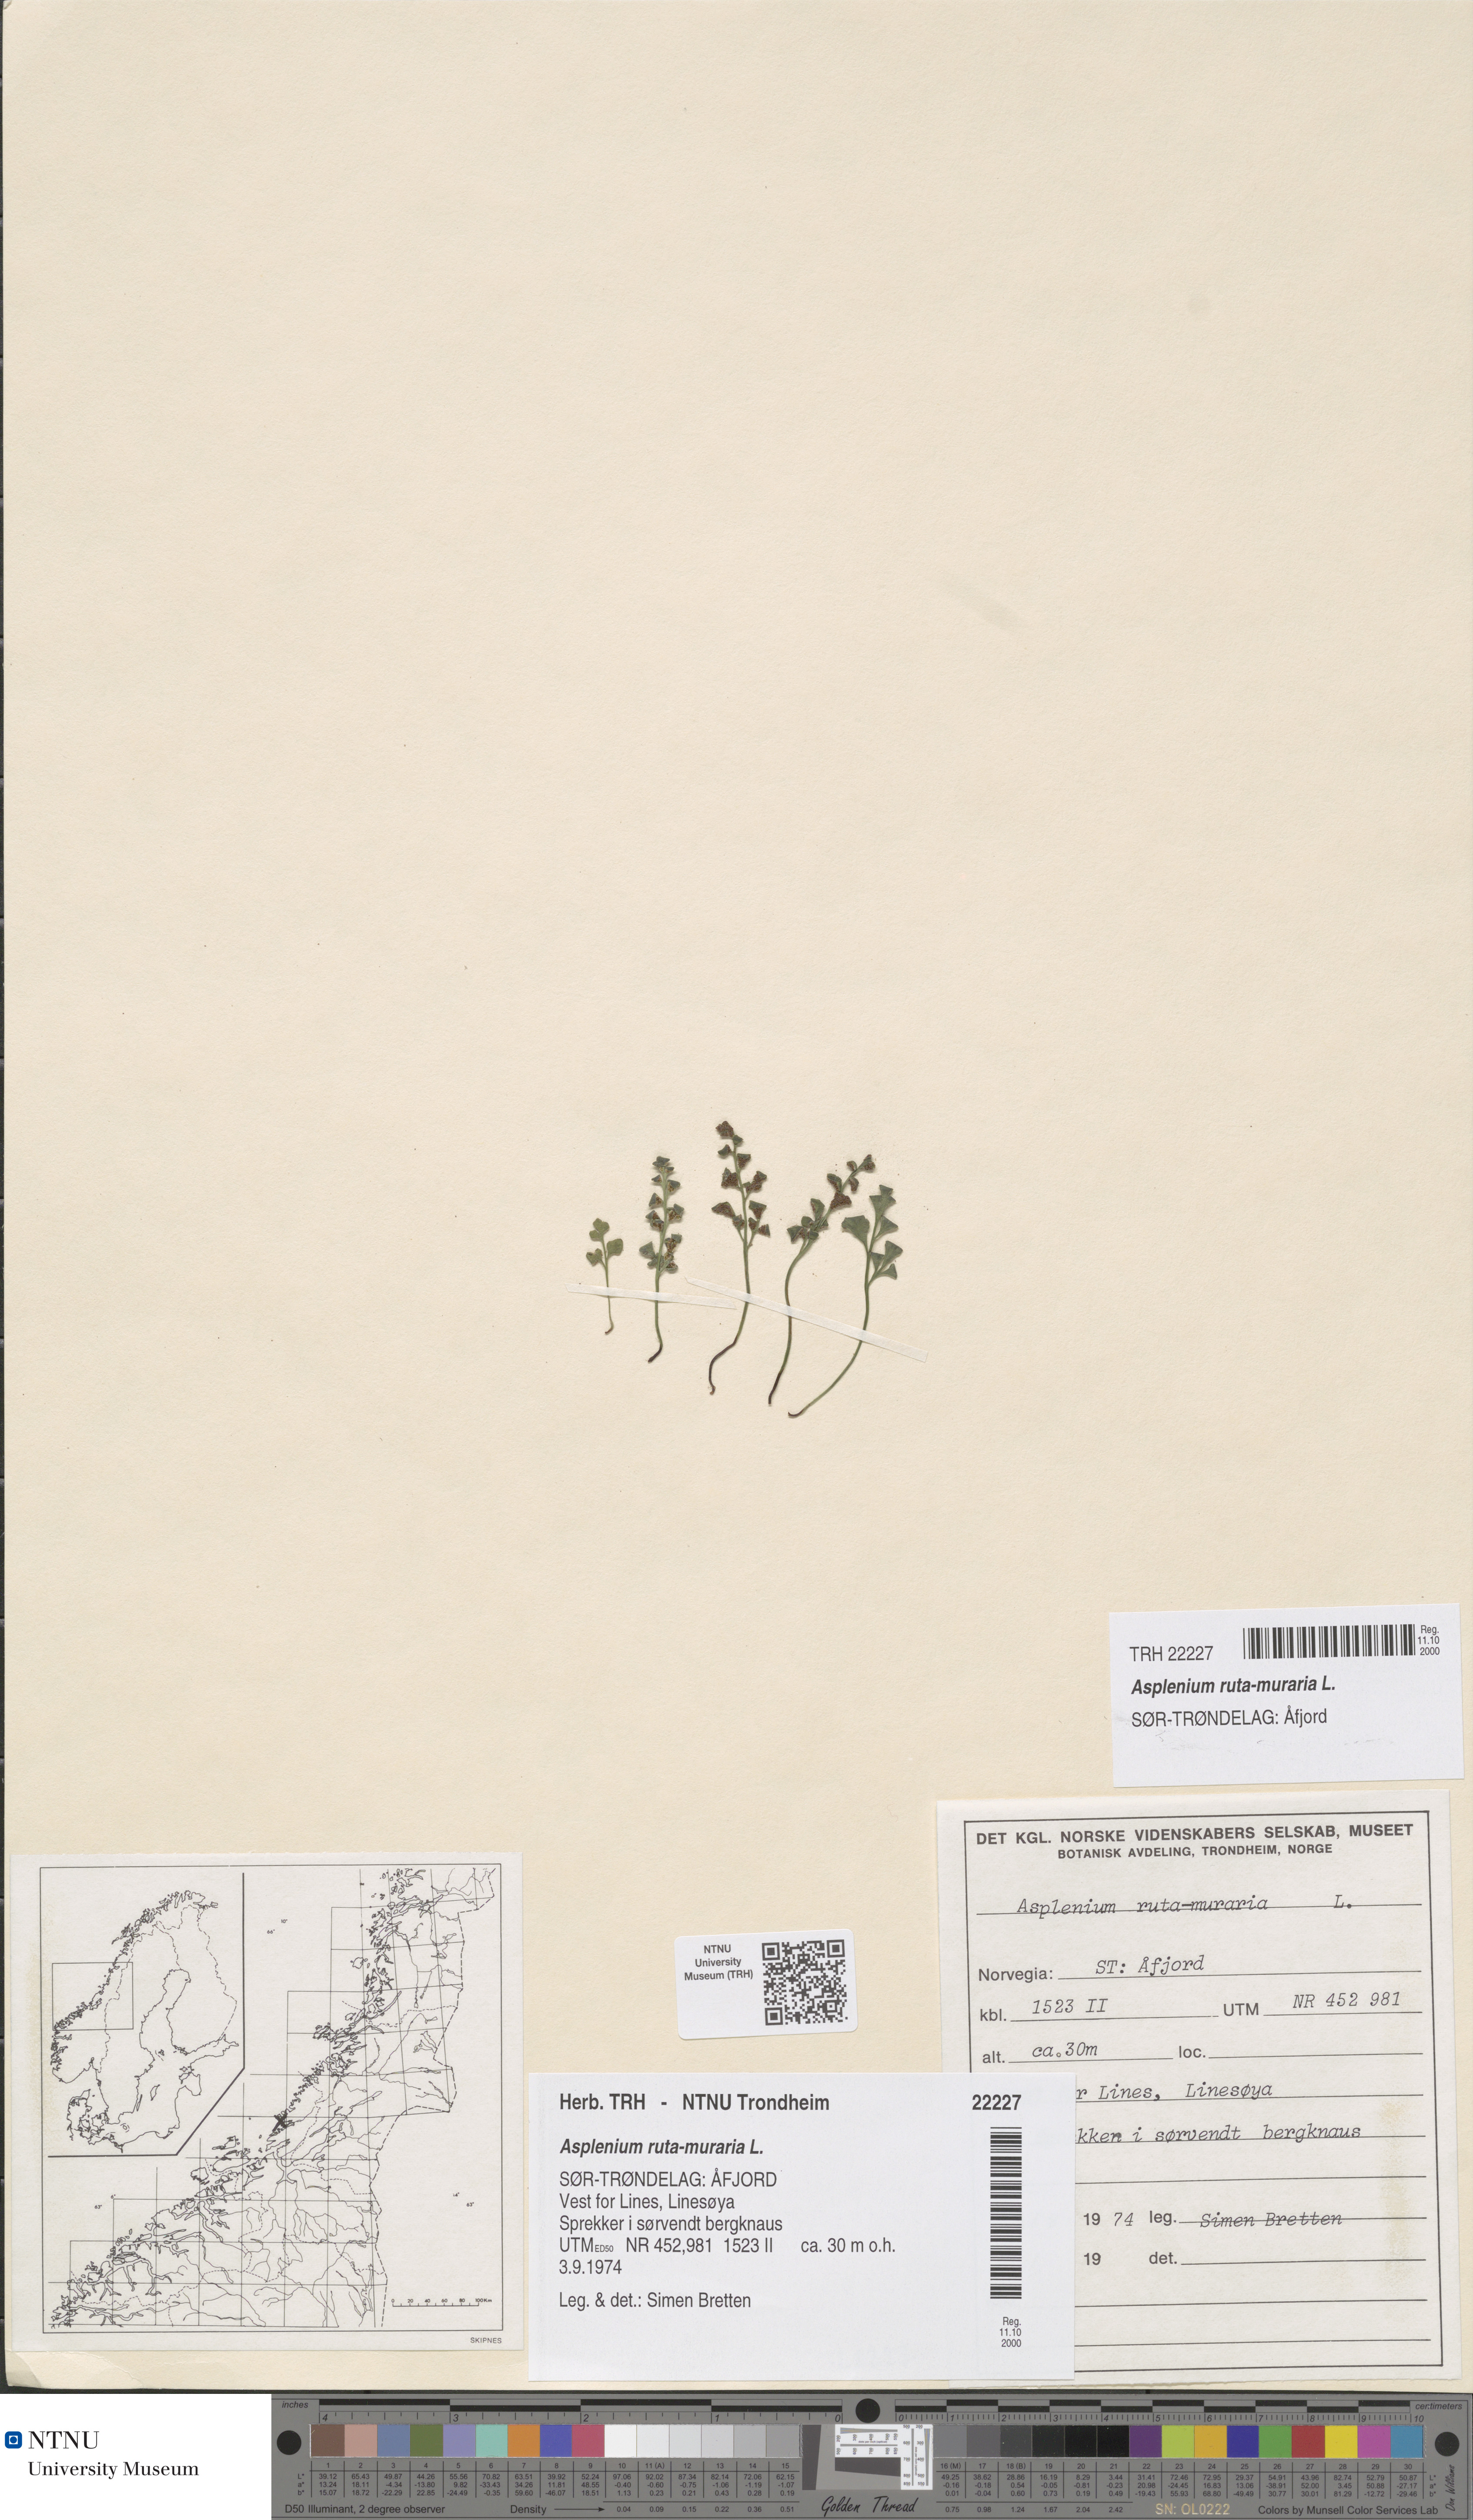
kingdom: Plantae
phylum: Tracheophyta
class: Polypodiopsida
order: Polypodiales
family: Aspleniaceae
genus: Asplenium
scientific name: Asplenium ruta-muraria
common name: Wall-rue
